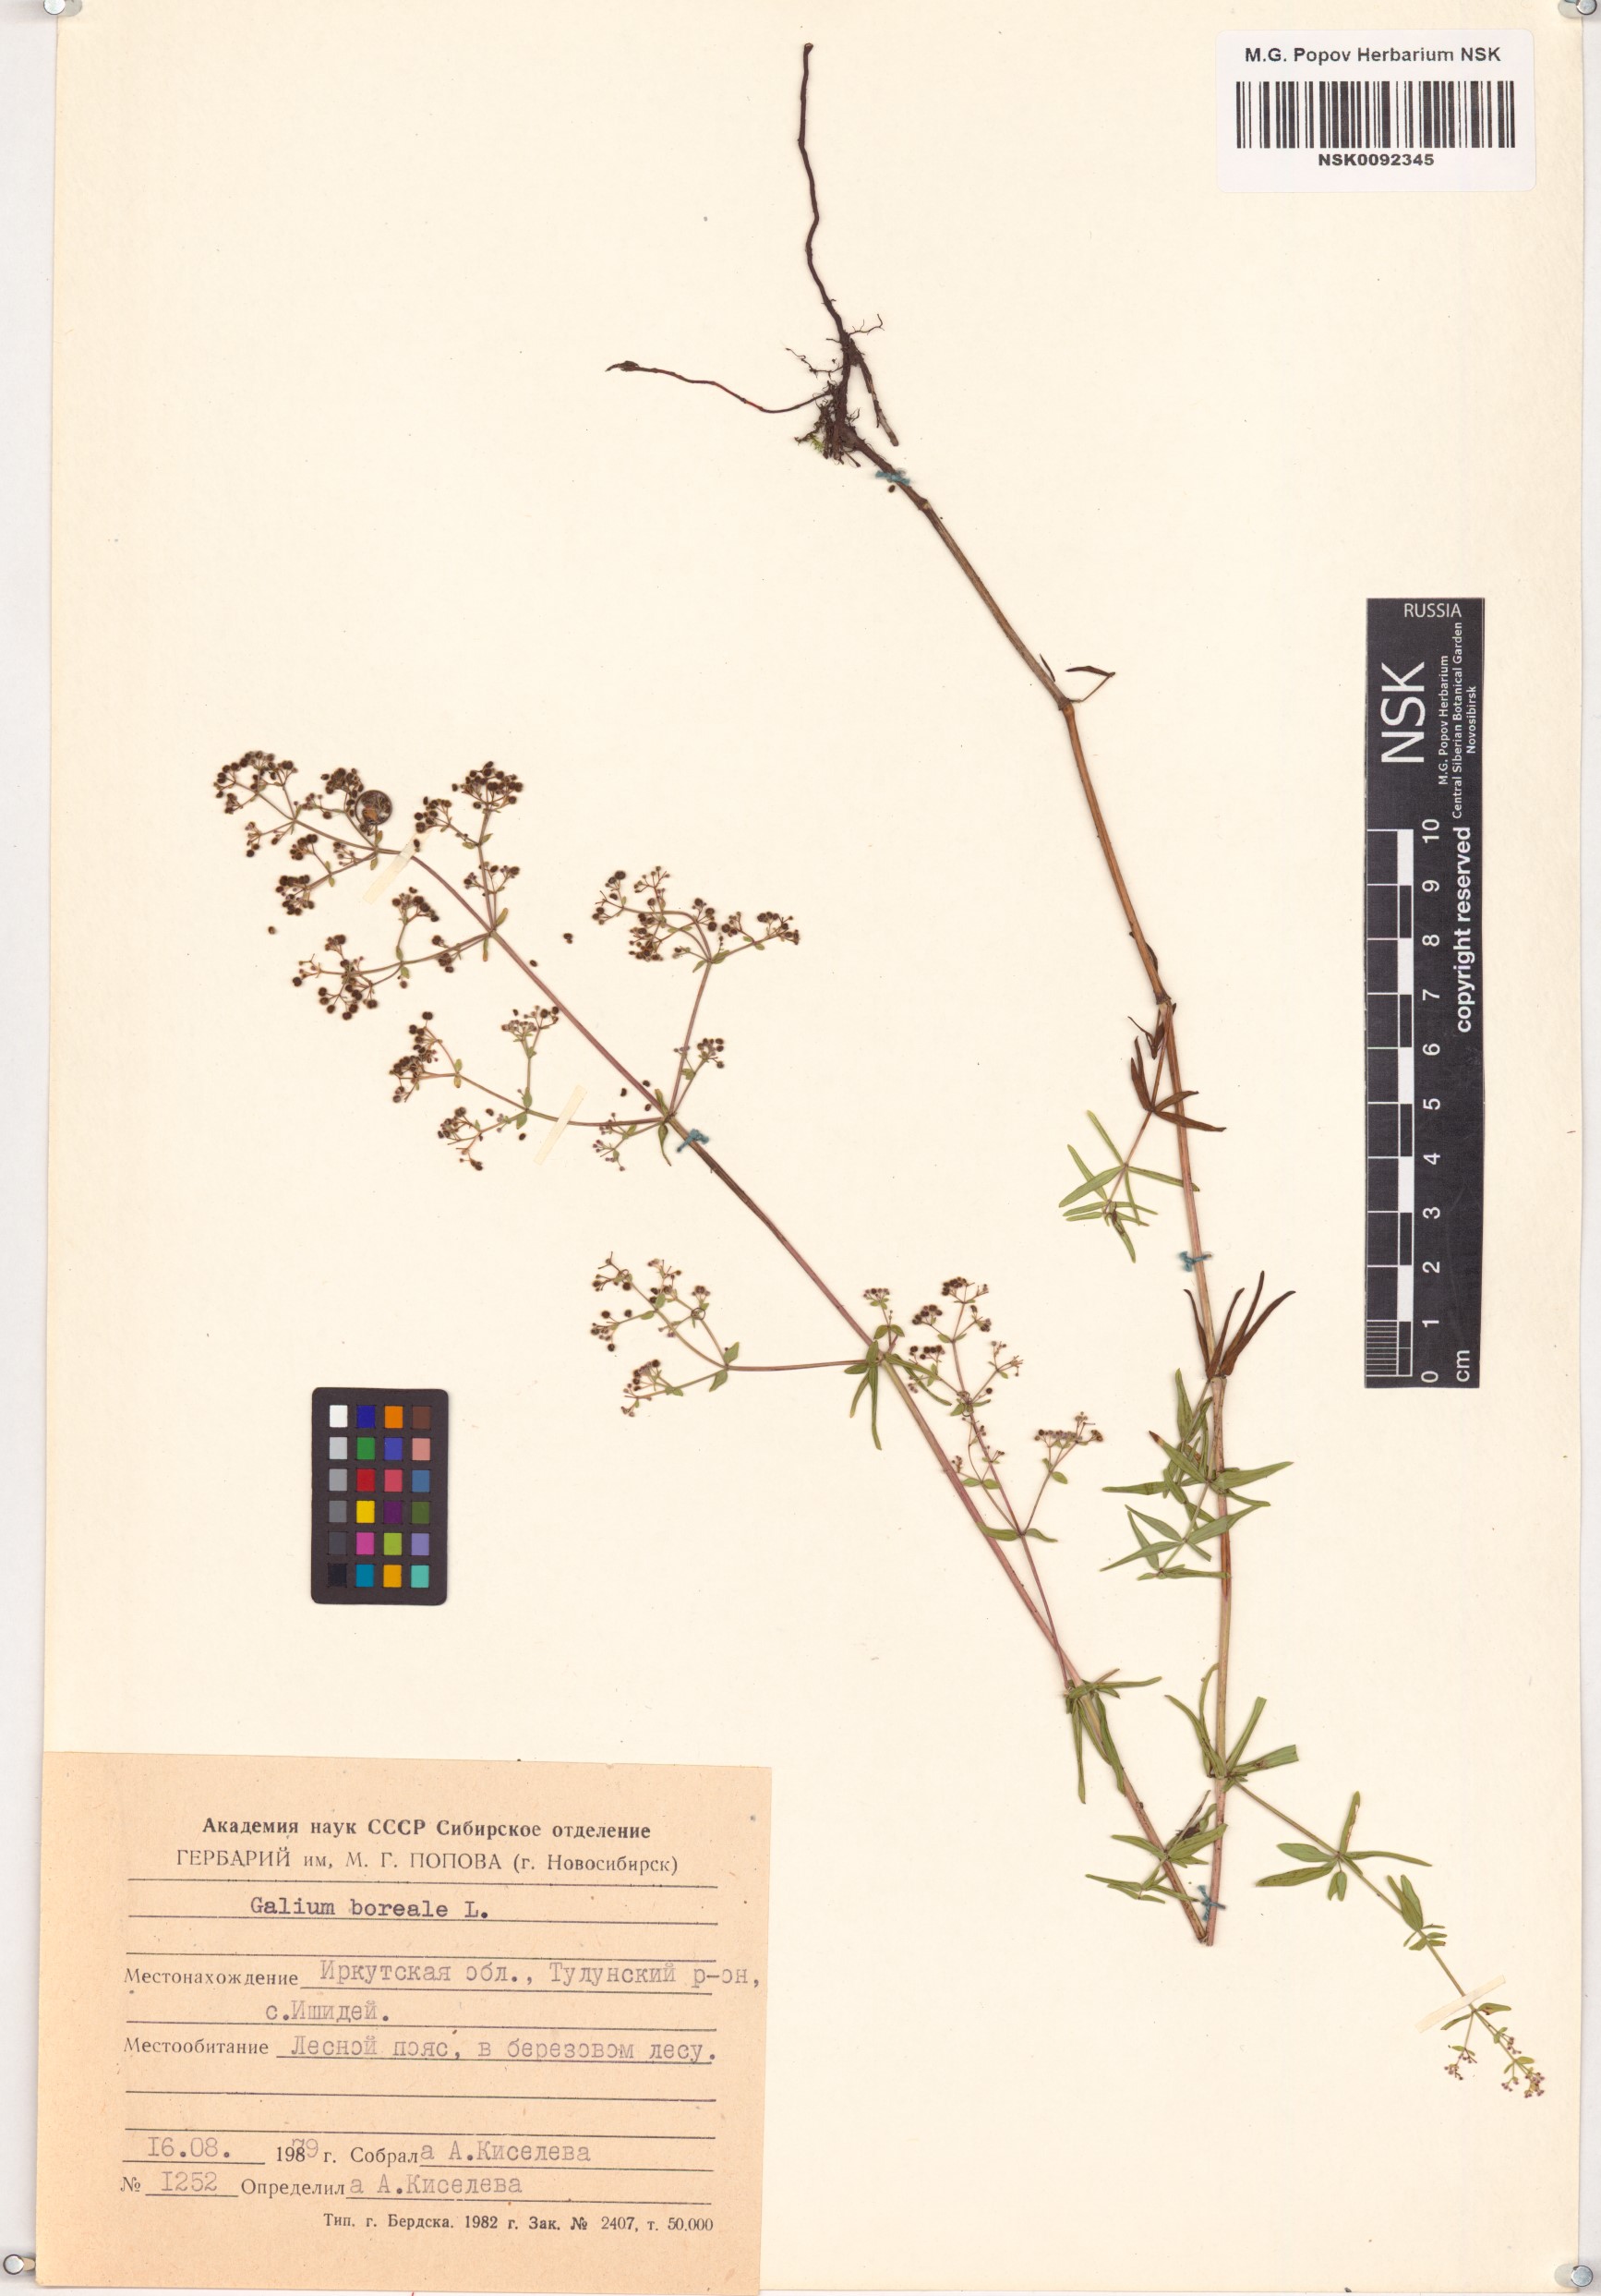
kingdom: Plantae
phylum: Tracheophyta
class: Magnoliopsida
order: Gentianales
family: Rubiaceae
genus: Galium
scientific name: Galium boreale
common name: Northern bedstraw
